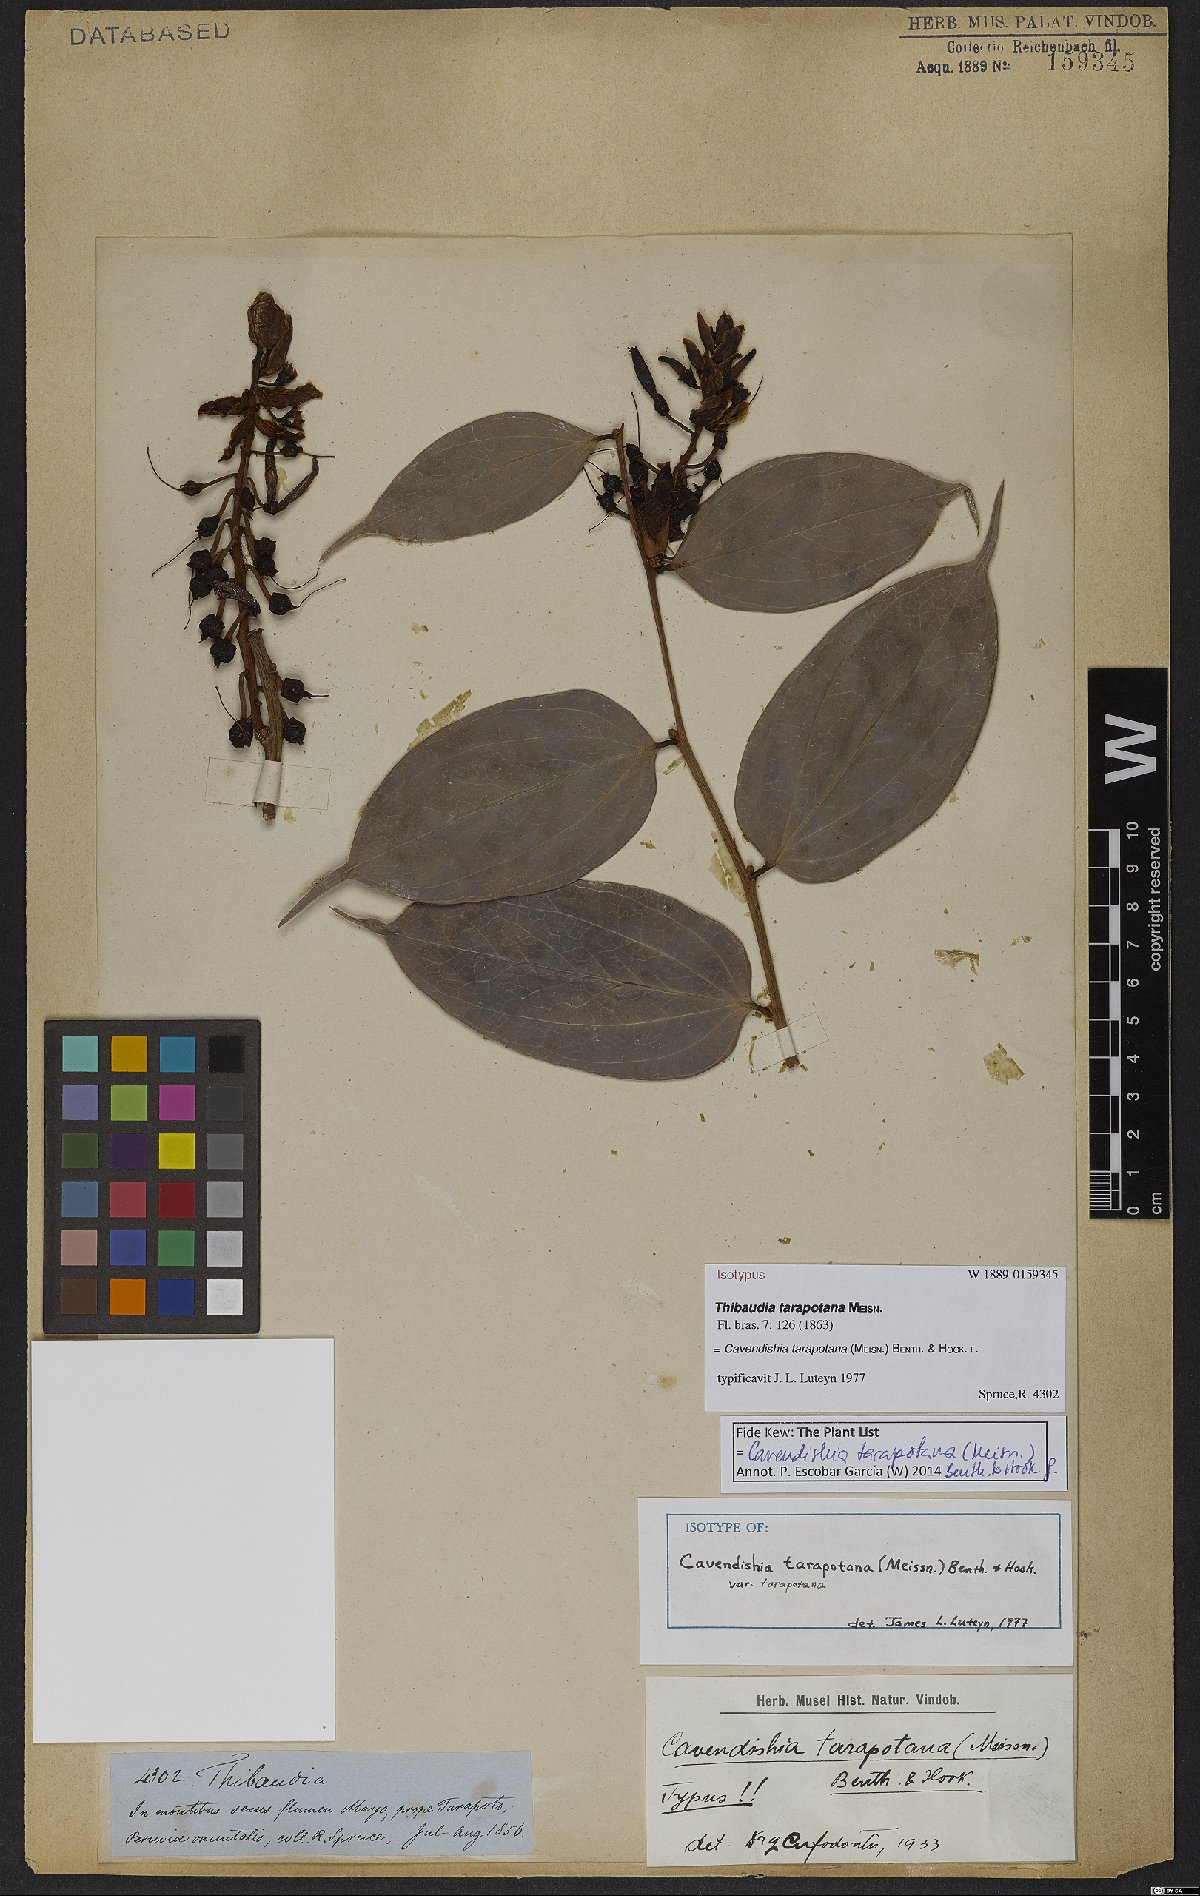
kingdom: Plantae
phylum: Tracheophyta
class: Magnoliopsida
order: Ericales
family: Ericaceae
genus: Cavendishia
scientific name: Cavendishia tarapotana
